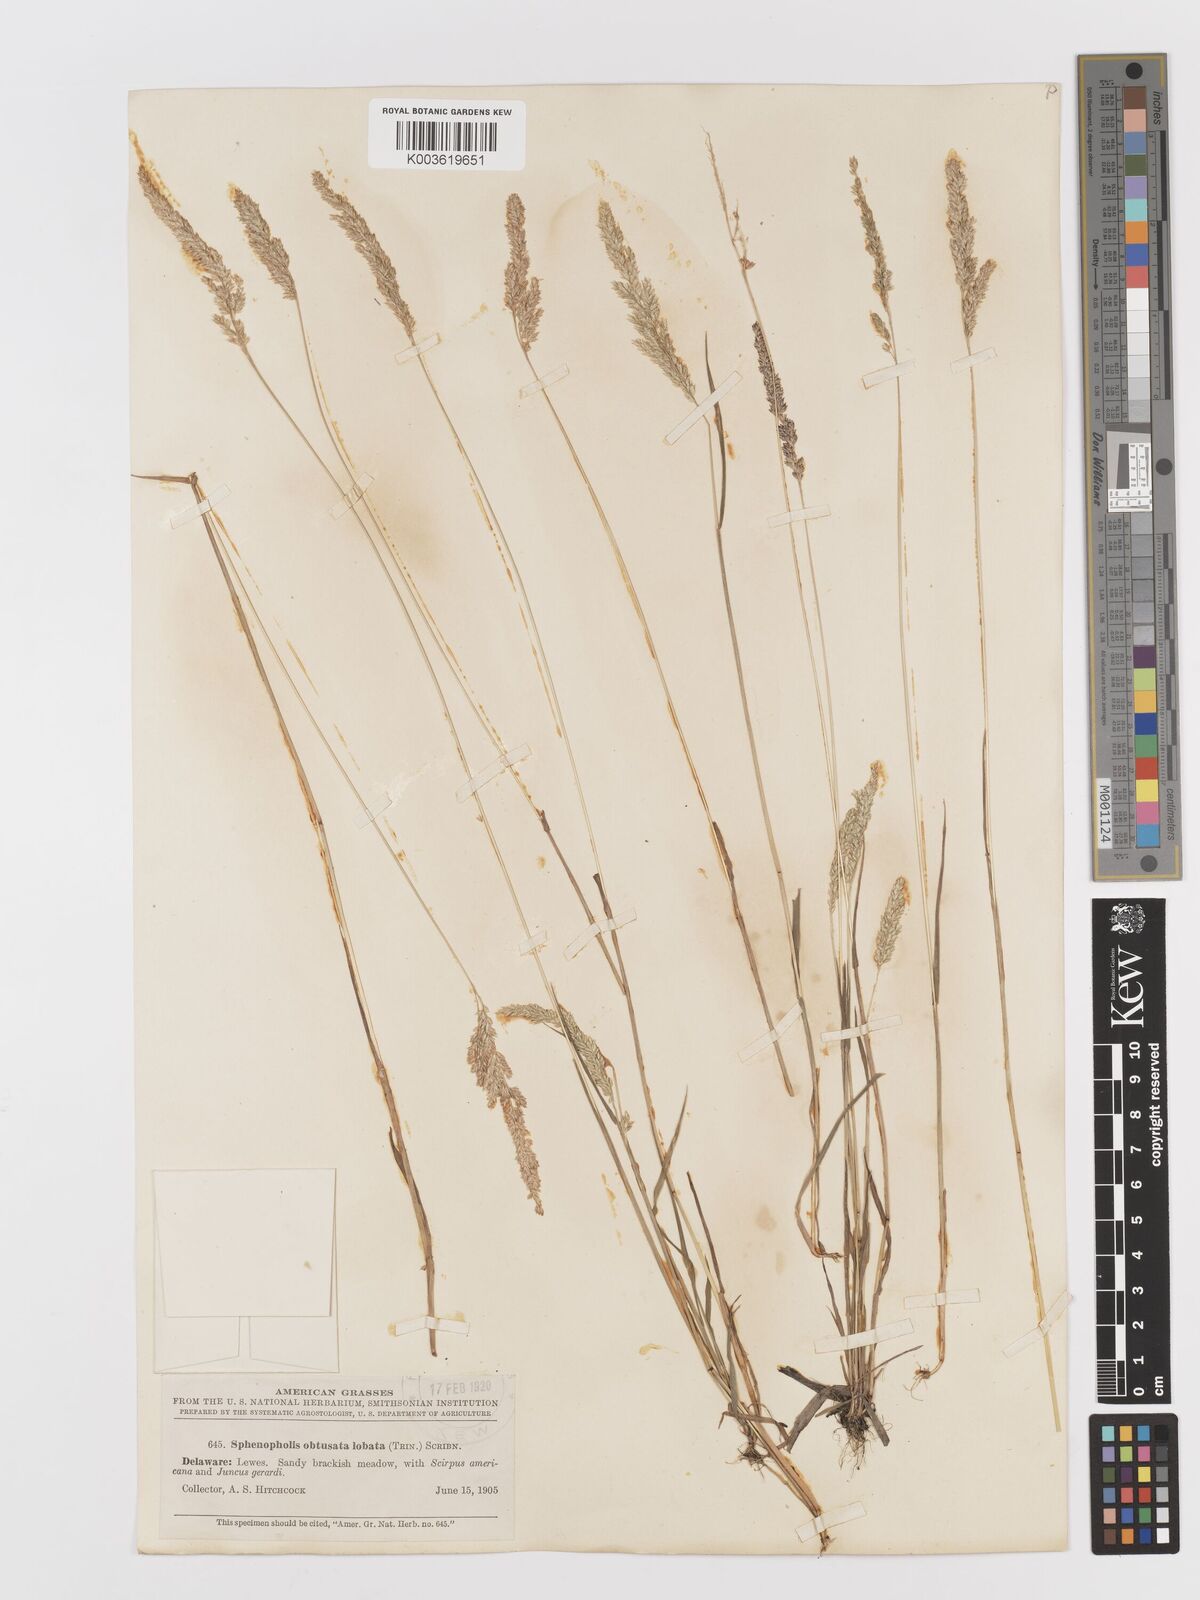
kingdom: Plantae
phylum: Tracheophyta
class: Liliopsida
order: Poales
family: Poaceae
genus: Sphenopholis
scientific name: Sphenopholis obtusata
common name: Prairie grass
